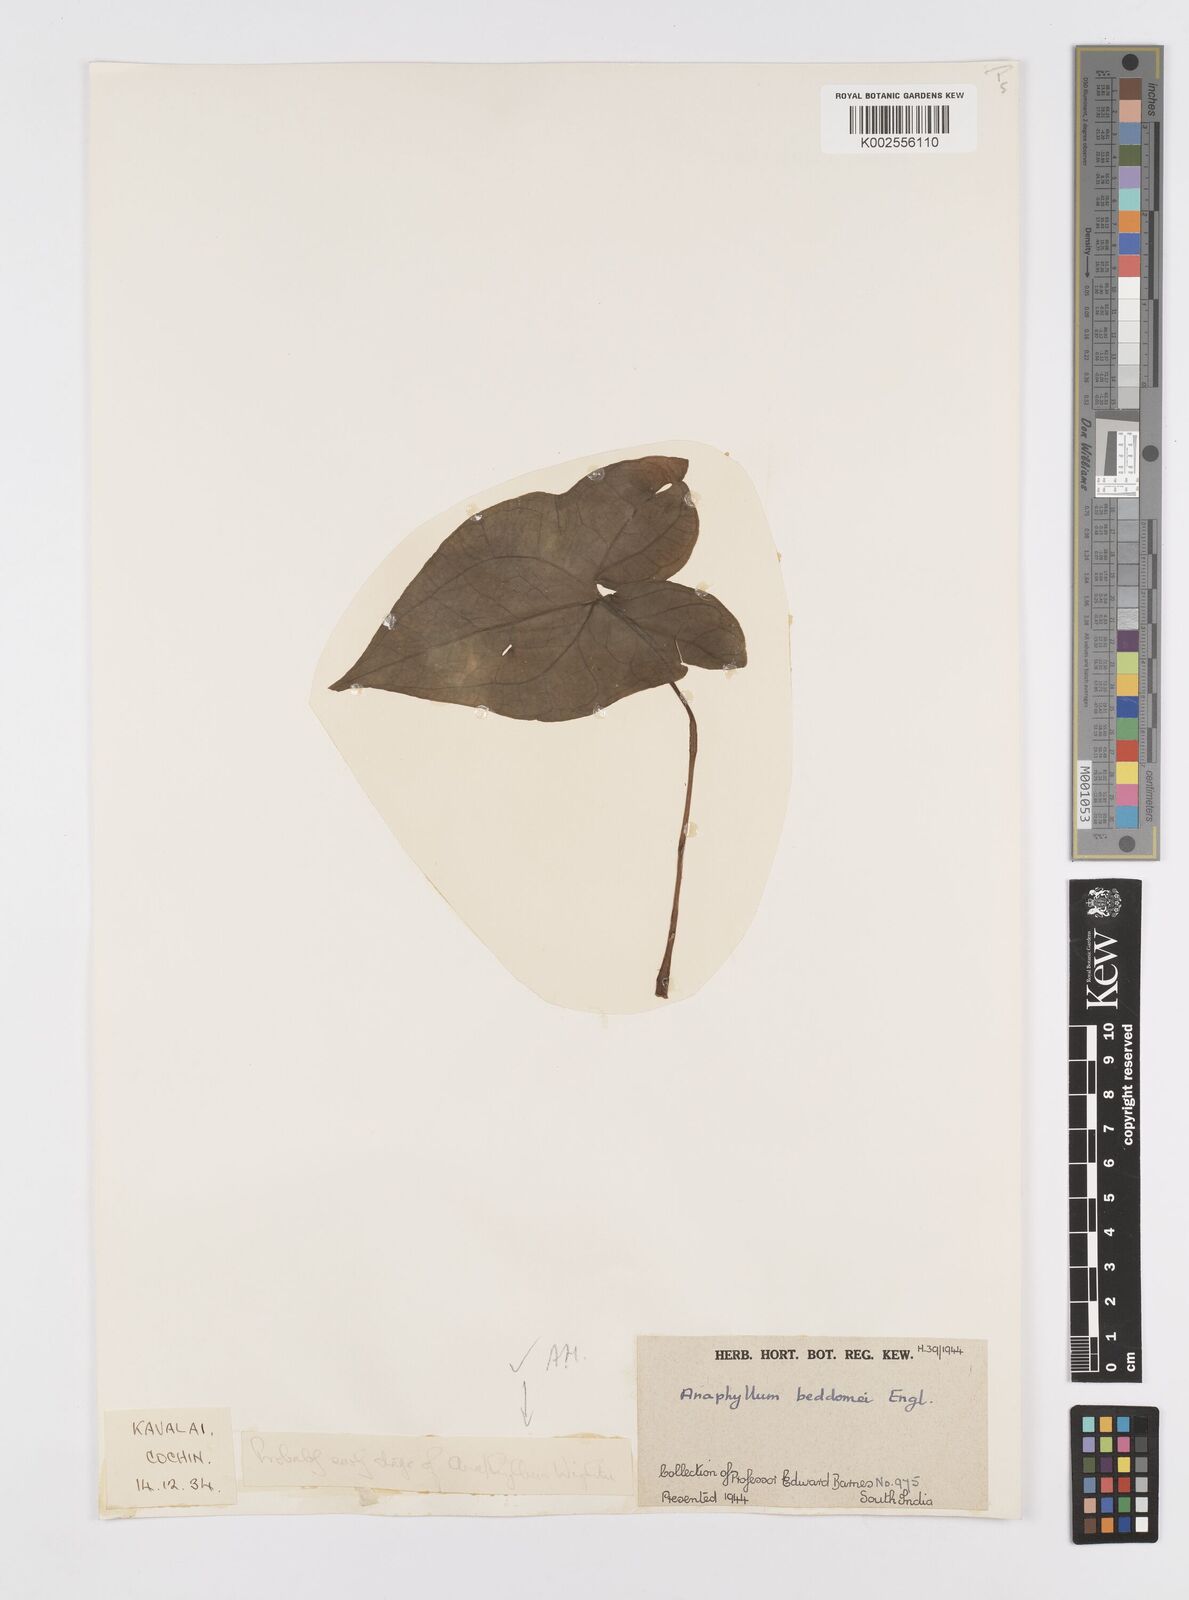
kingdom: Plantae
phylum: Tracheophyta
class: Liliopsida
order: Alismatales
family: Araceae
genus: Anaphyllum
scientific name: Anaphyllum wightii
